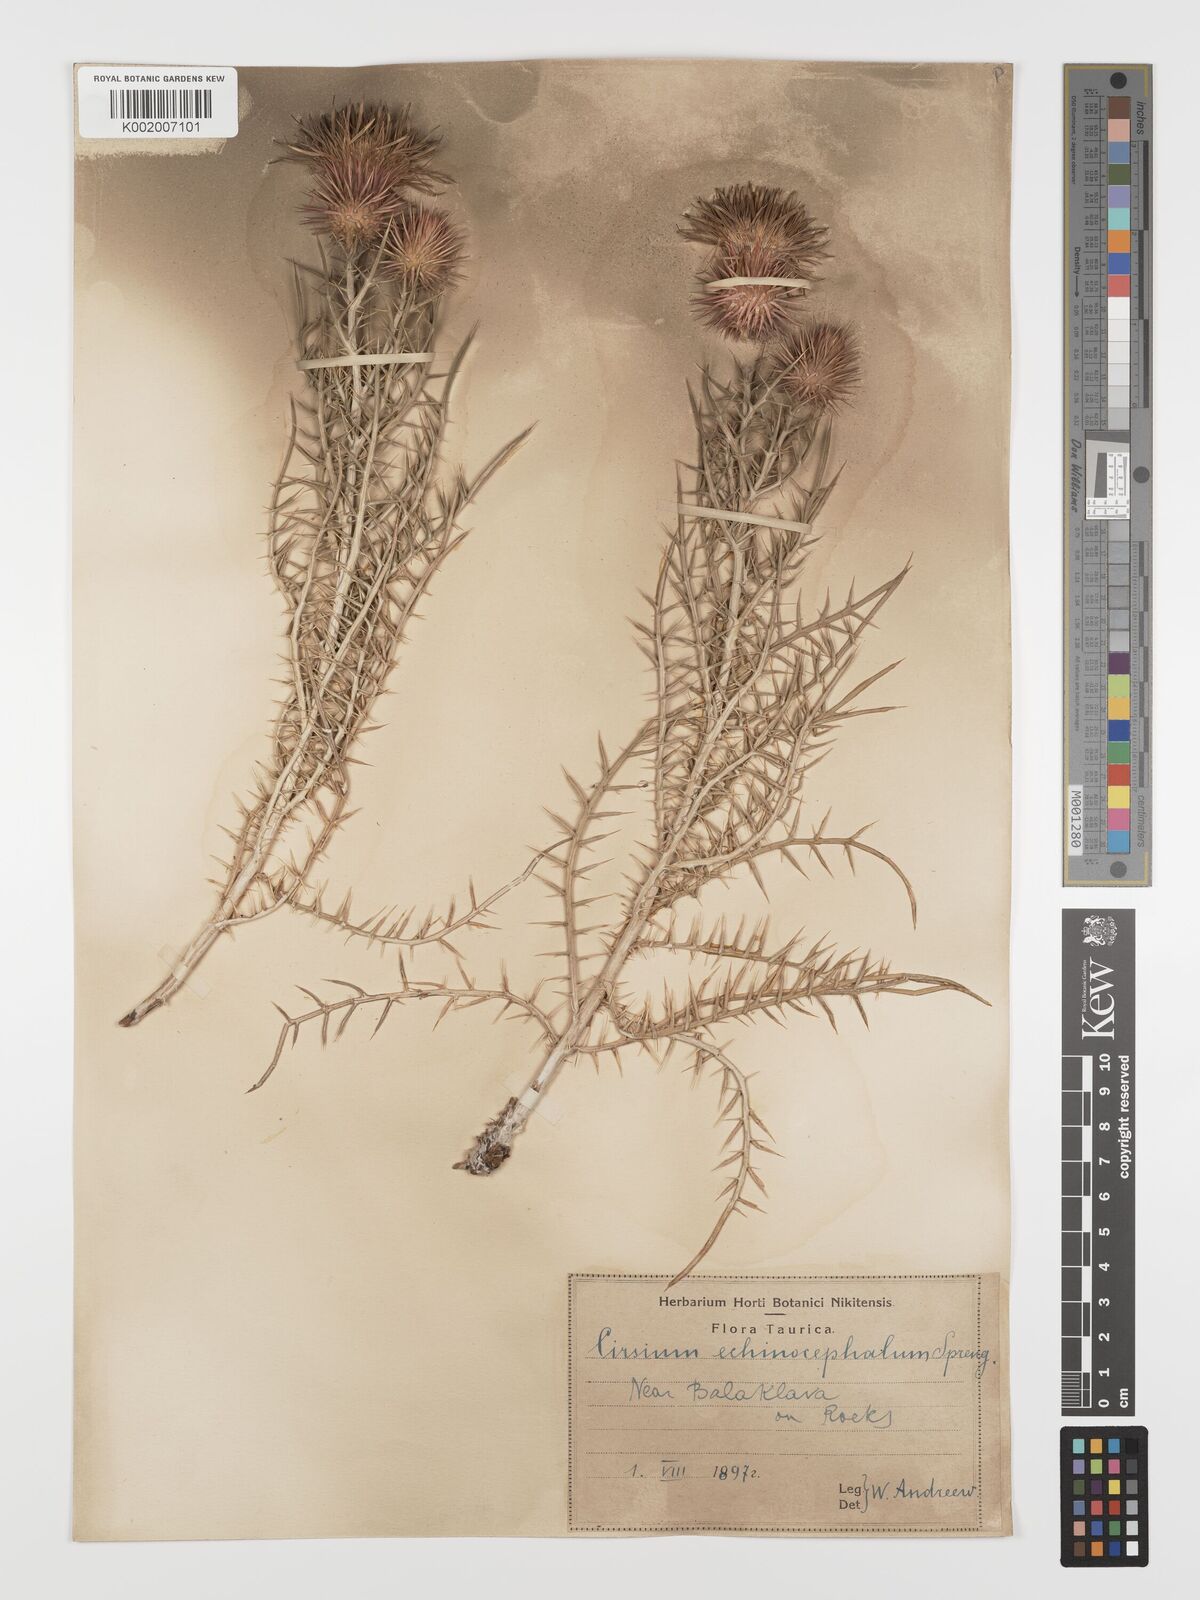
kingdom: Plantae
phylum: Tracheophyta
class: Magnoliopsida
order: Asterales
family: Asteraceae
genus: Ptilostemon
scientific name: Ptilostemon echinocephalus
